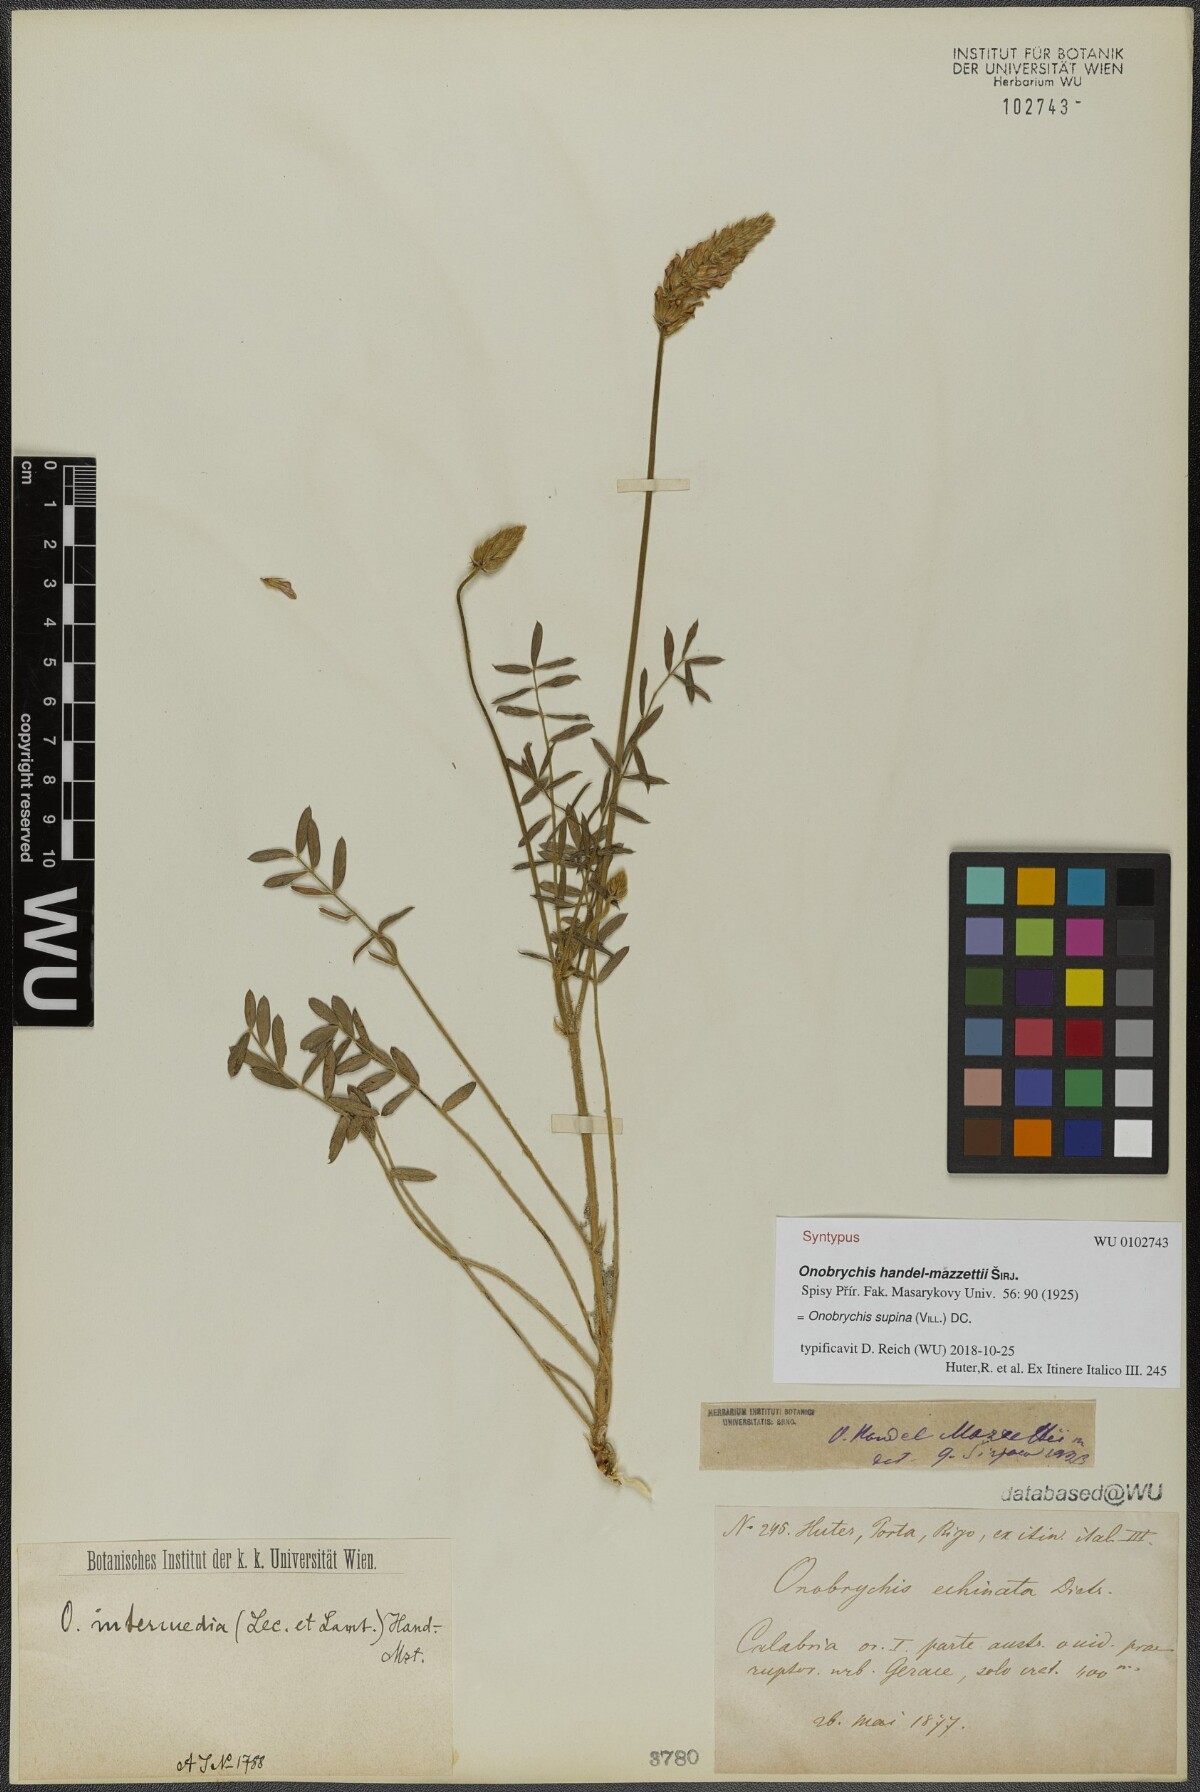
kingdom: Plantae
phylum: Tracheophyta
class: Magnoliopsida
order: Fabales
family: Fabaceae
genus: Onobrychis
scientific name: Onobrychis supina
